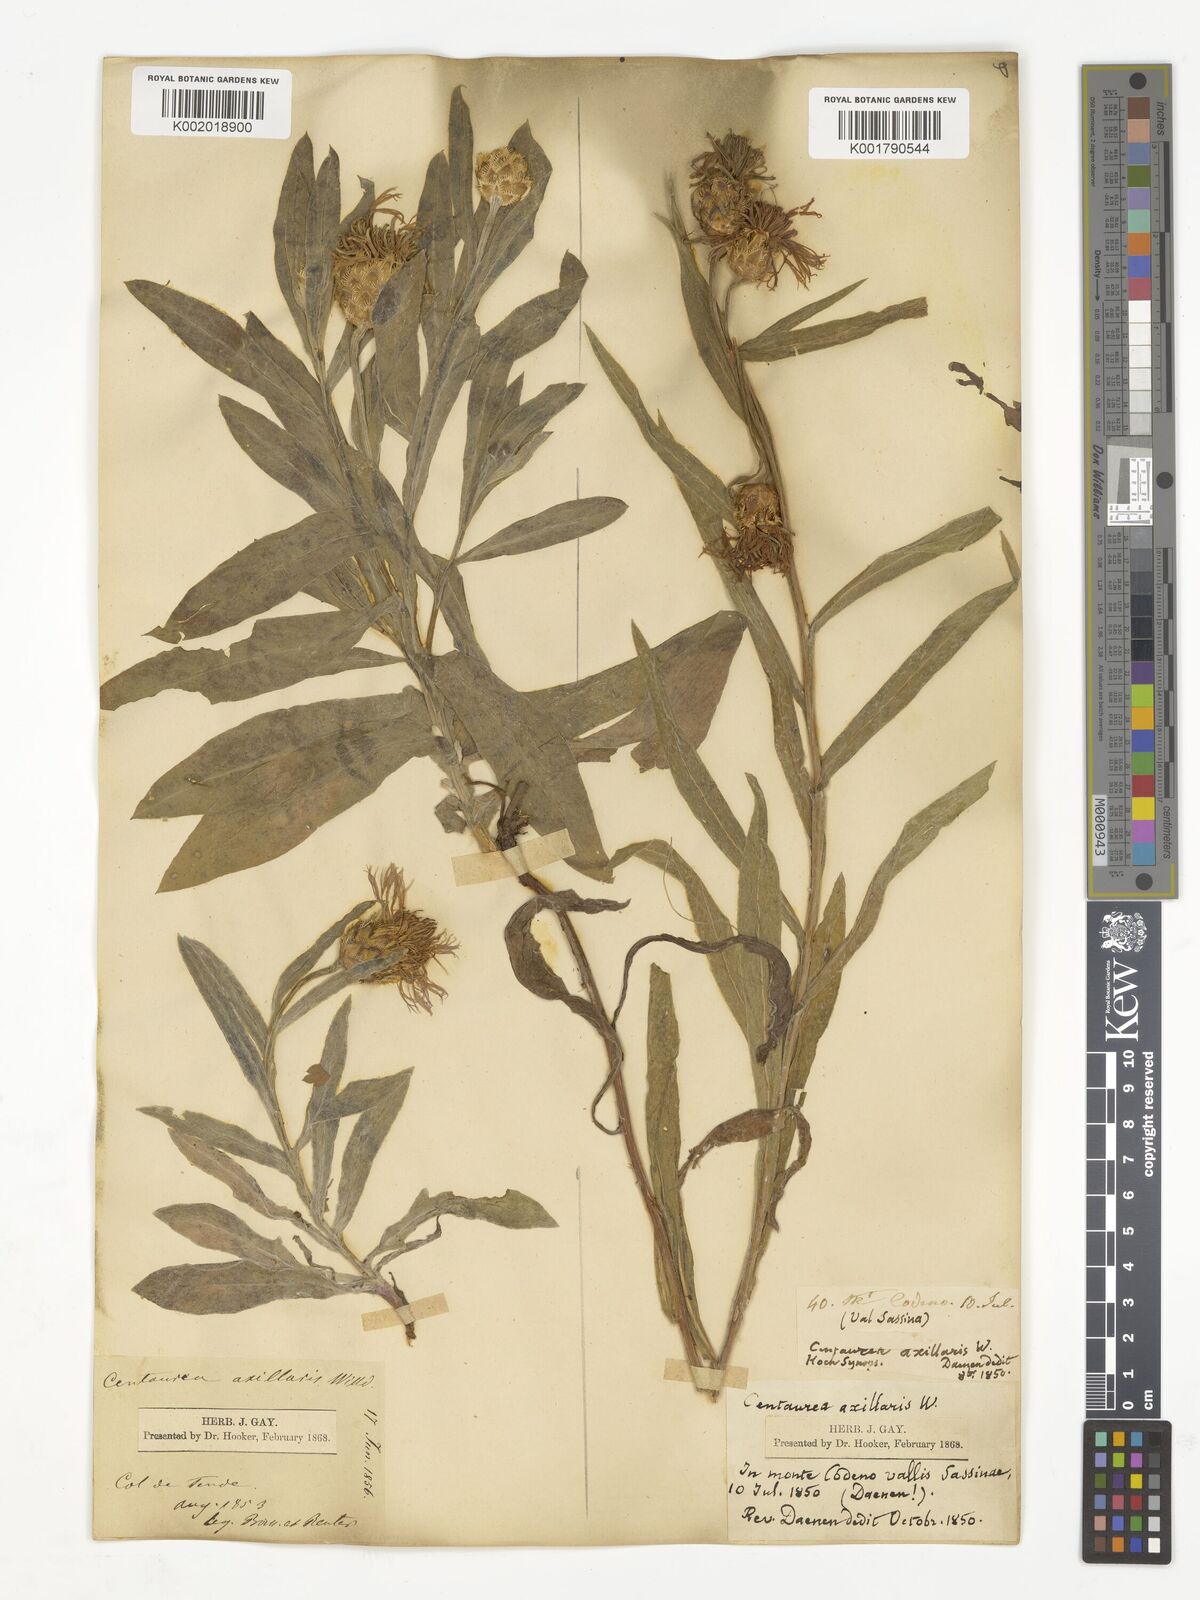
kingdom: Plantae
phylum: Tracheophyta
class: Magnoliopsida
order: Asterales
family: Asteraceae
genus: Centaurea
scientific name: Centaurea triumfettii
